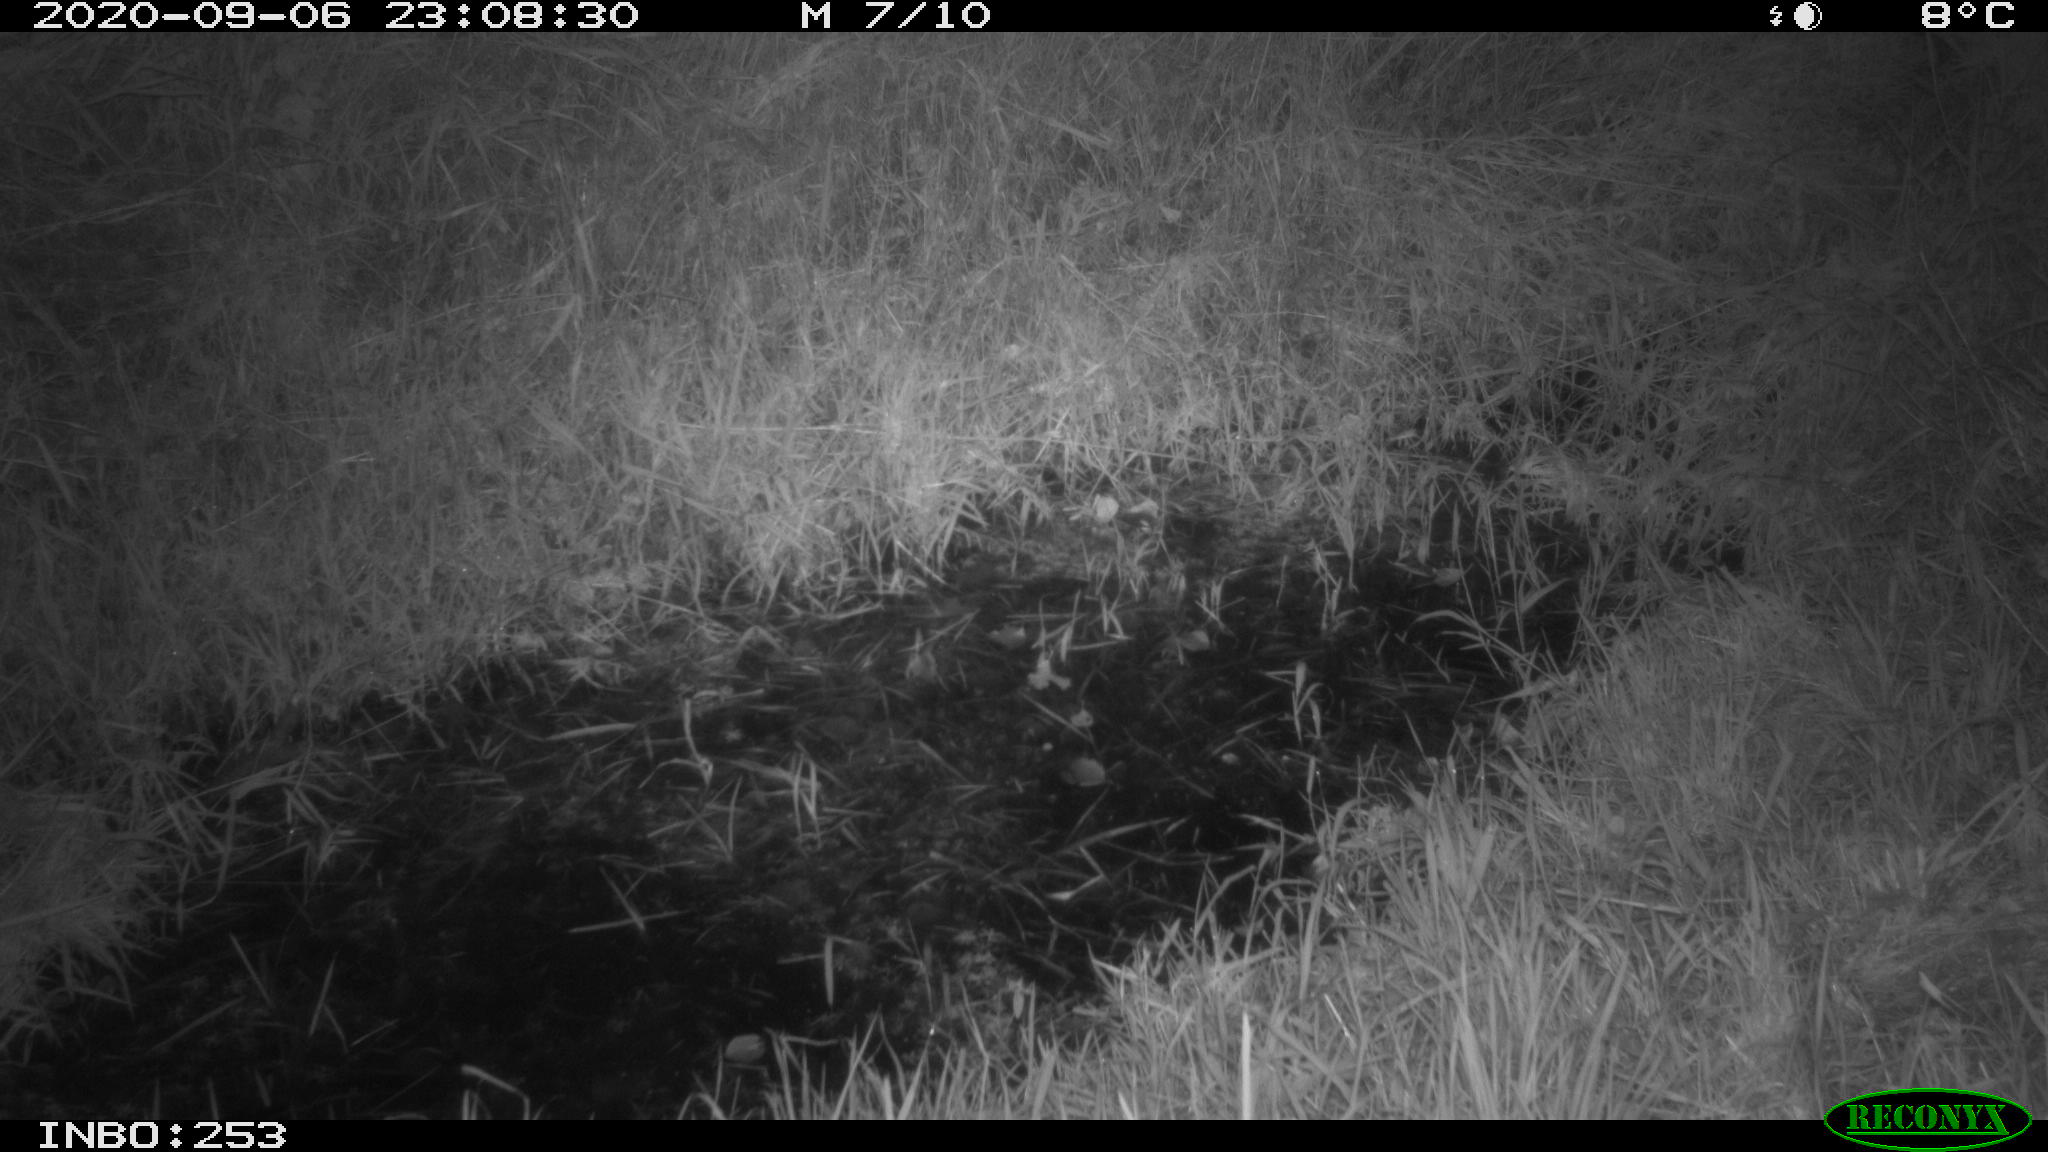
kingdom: Animalia
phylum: Chordata
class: Mammalia
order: Rodentia
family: Muridae
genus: Rattus
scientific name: Rattus norvegicus
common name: Brown rat
